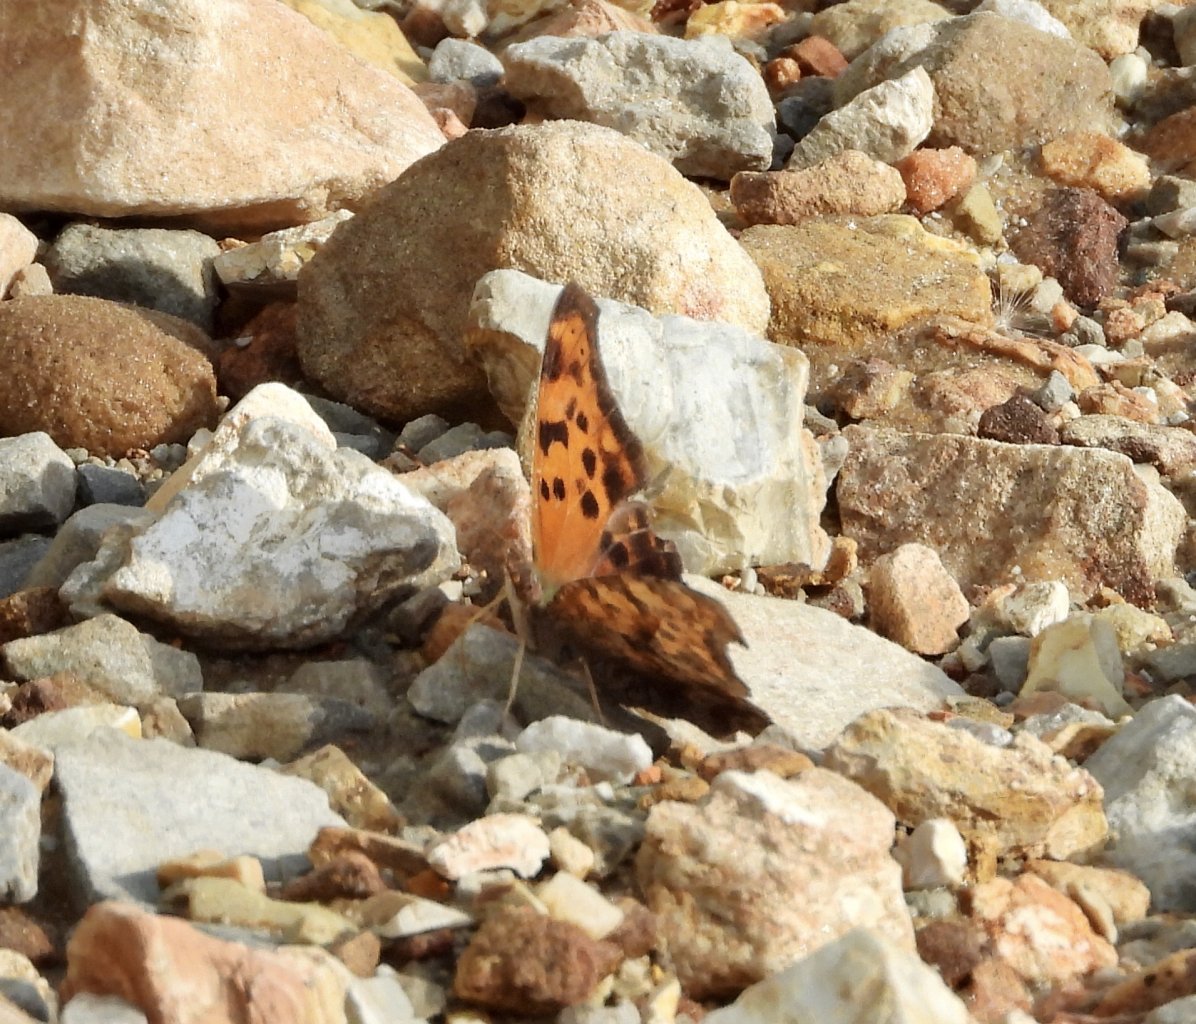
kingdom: Animalia
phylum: Arthropoda
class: Insecta
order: Lepidoptera
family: Nymphalidae
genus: Polygonia
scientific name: Polygonia interrogationis
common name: Question Mark
